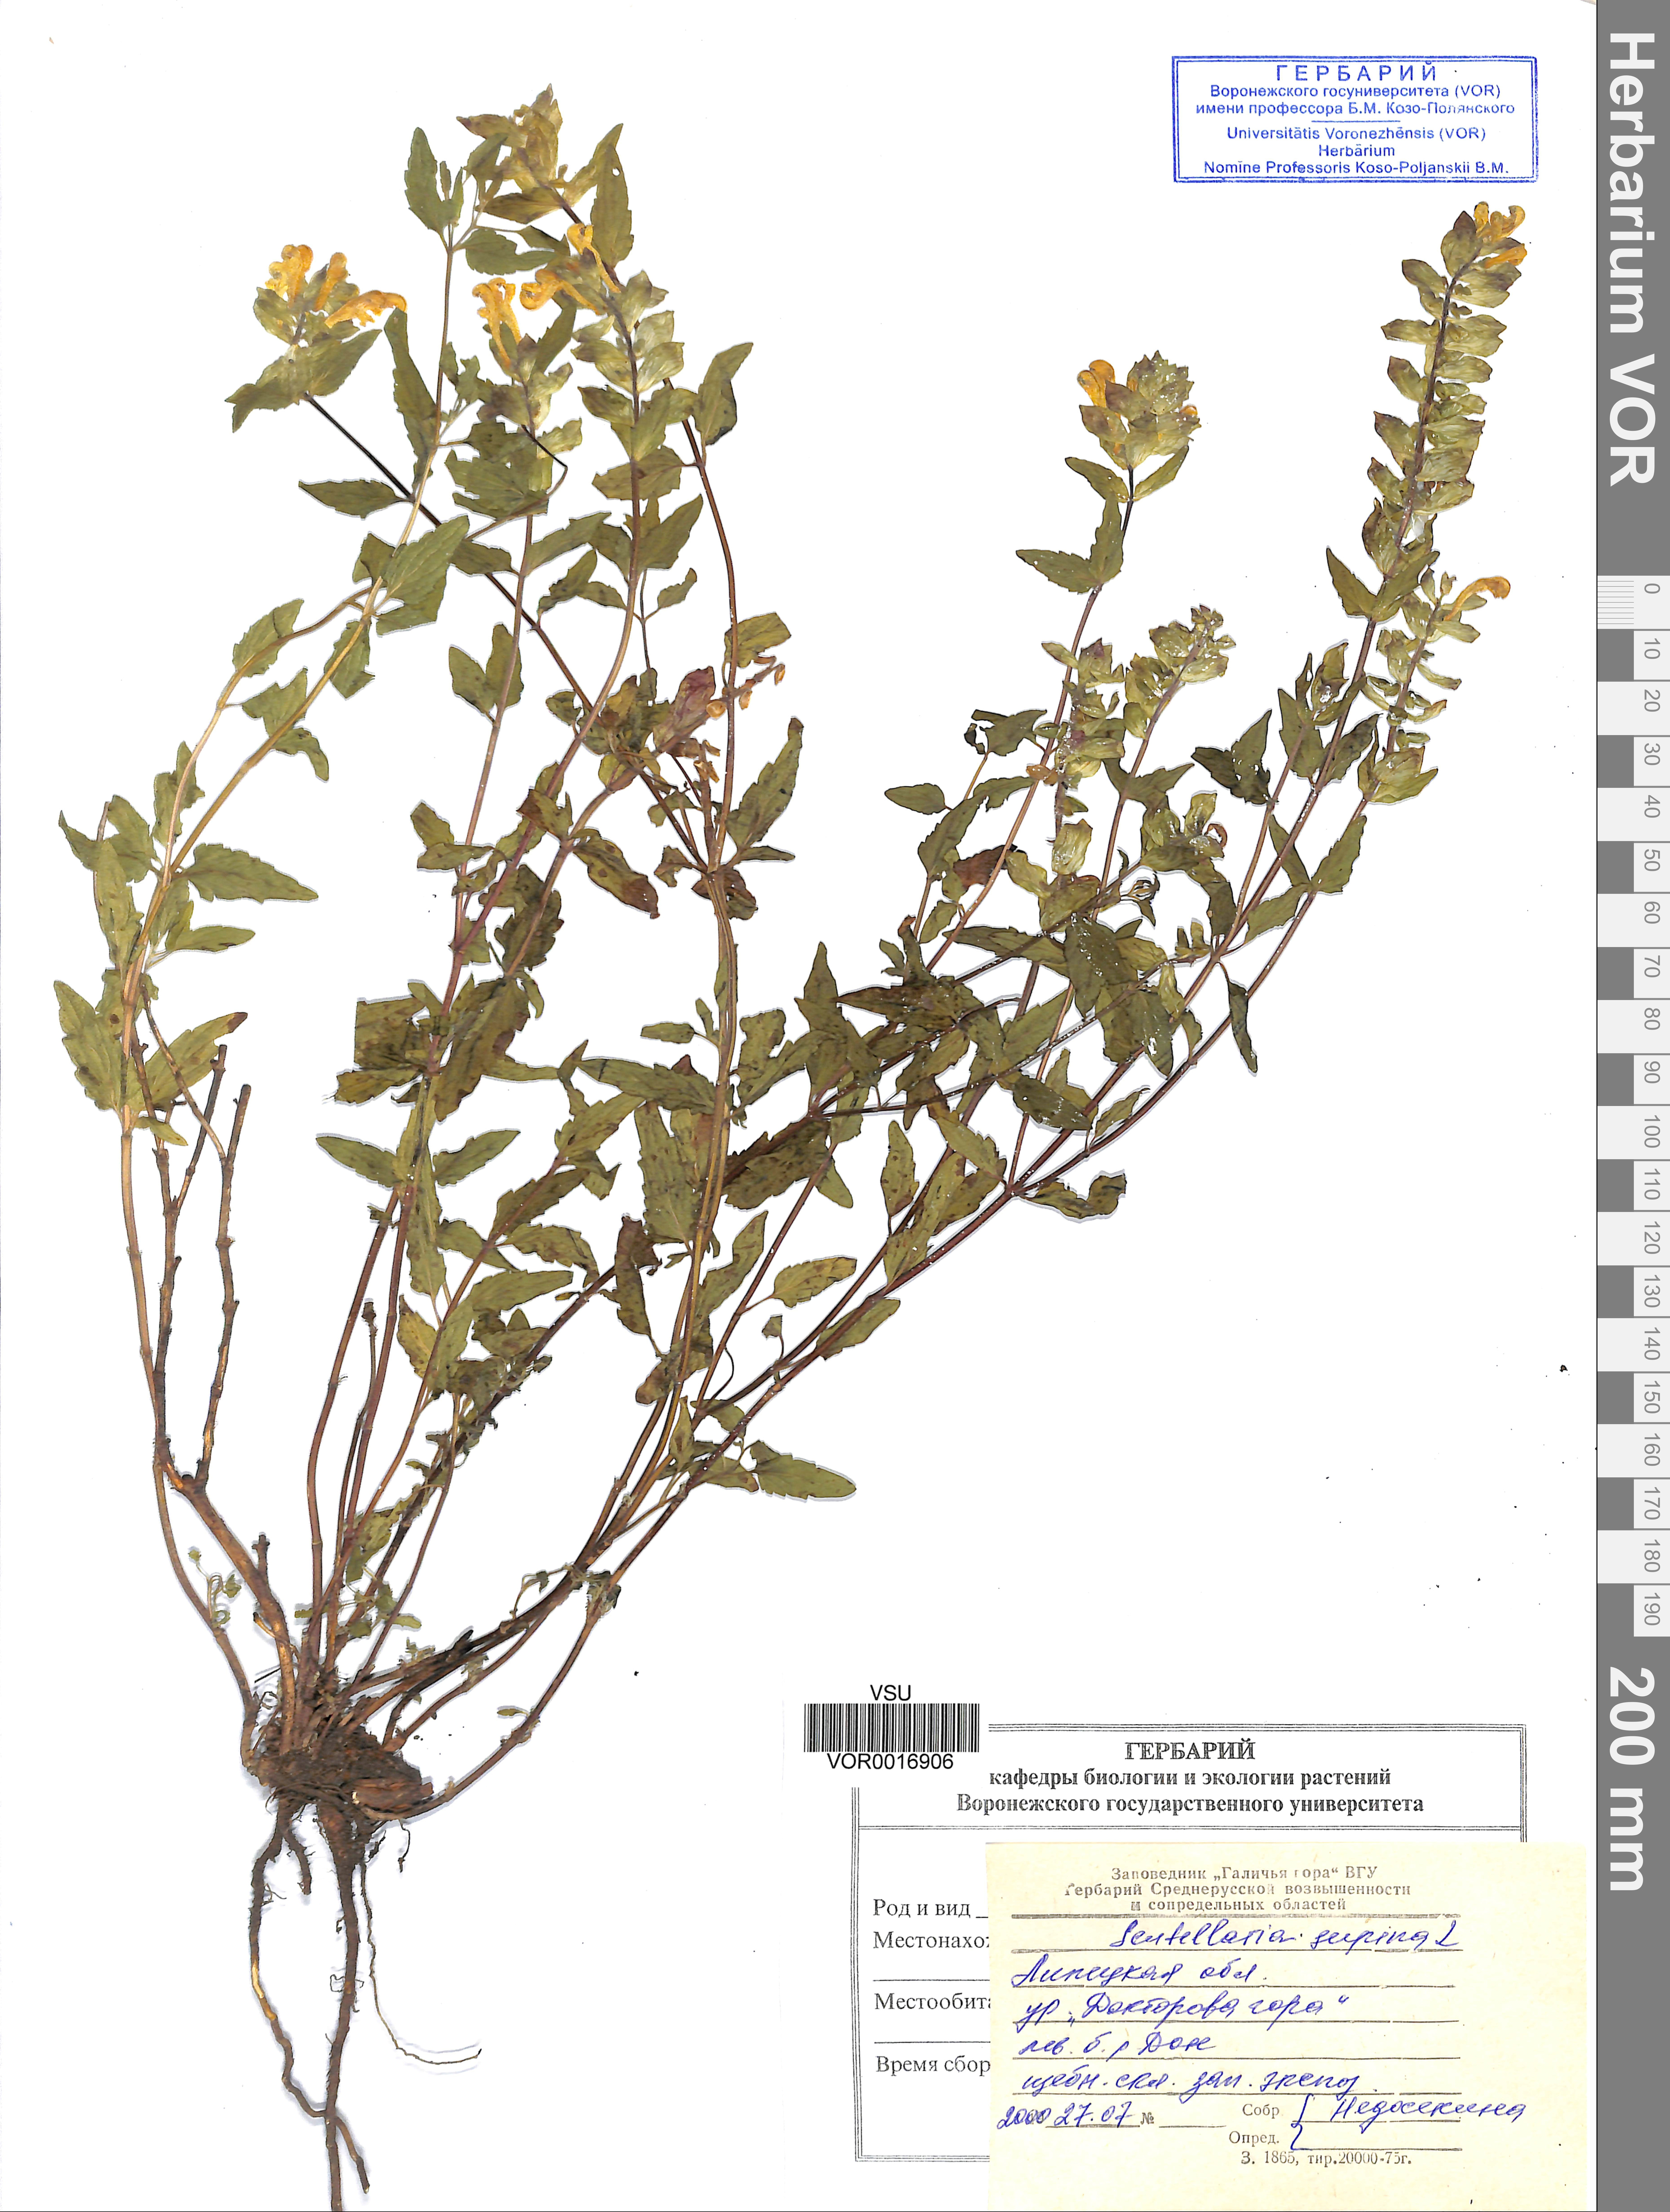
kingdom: Plantae
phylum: Tracheophyta
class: Magnoliopsida
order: Lamiales
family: Lamiaceae
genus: Scutellaria
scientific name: Scutellaria supina
